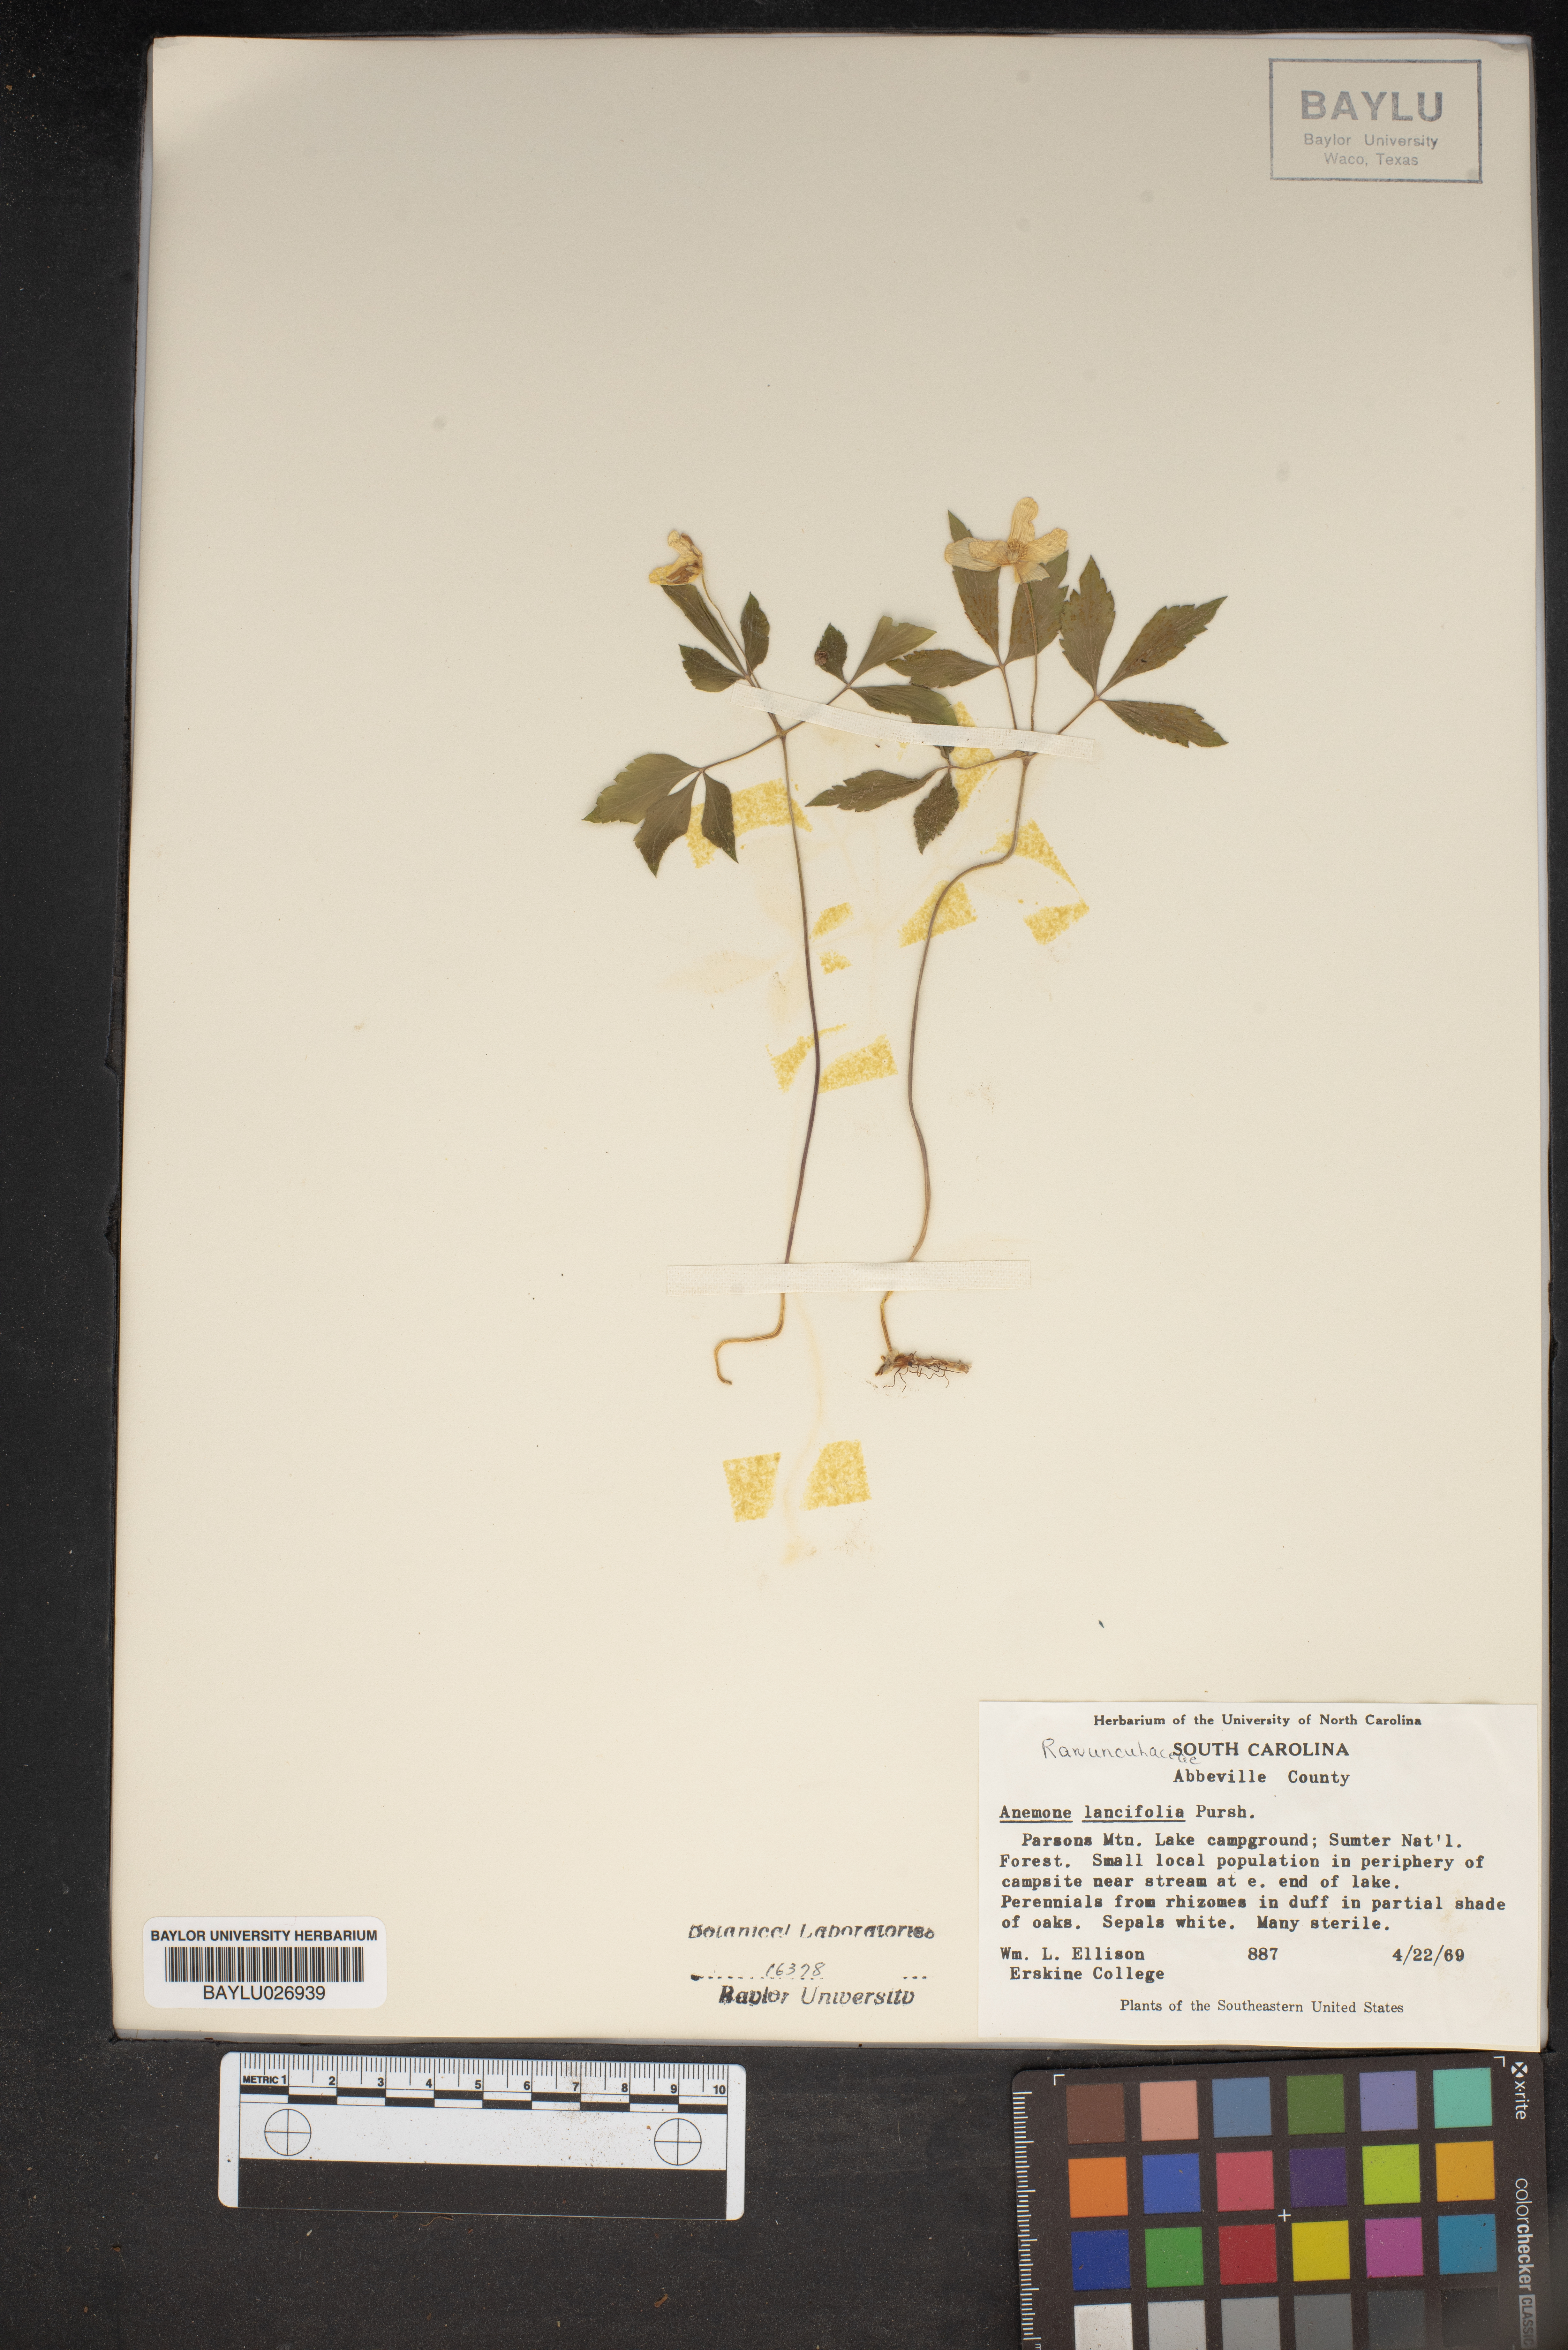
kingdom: Plantae
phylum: Tracheophyta
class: Magnoliopsida
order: Ranunculales
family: Ranunculaceae
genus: Anemone
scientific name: Anemone lancifolia
